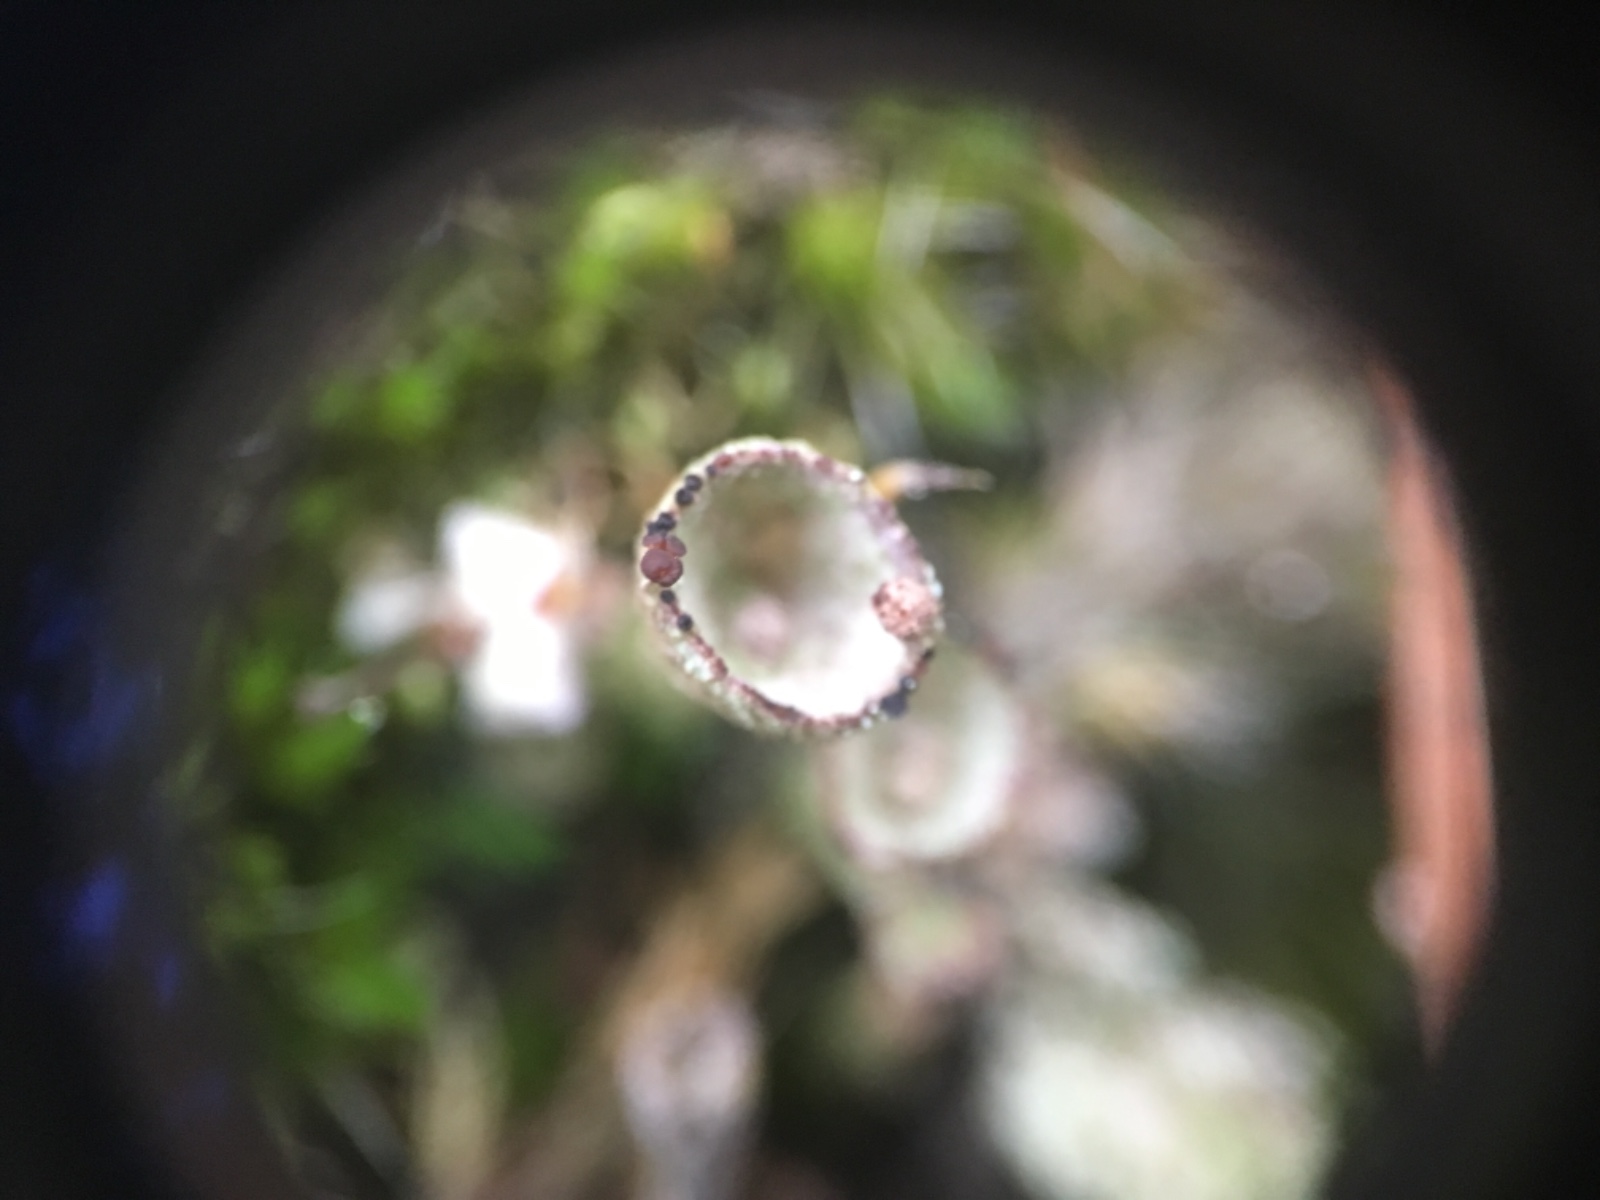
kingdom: Fungi
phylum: Ascomycota
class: Lecanoromycetes
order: Lecanorales
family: Cladoniaceae
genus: Cladonia
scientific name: Cladonia
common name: brungrøn bægerlav
